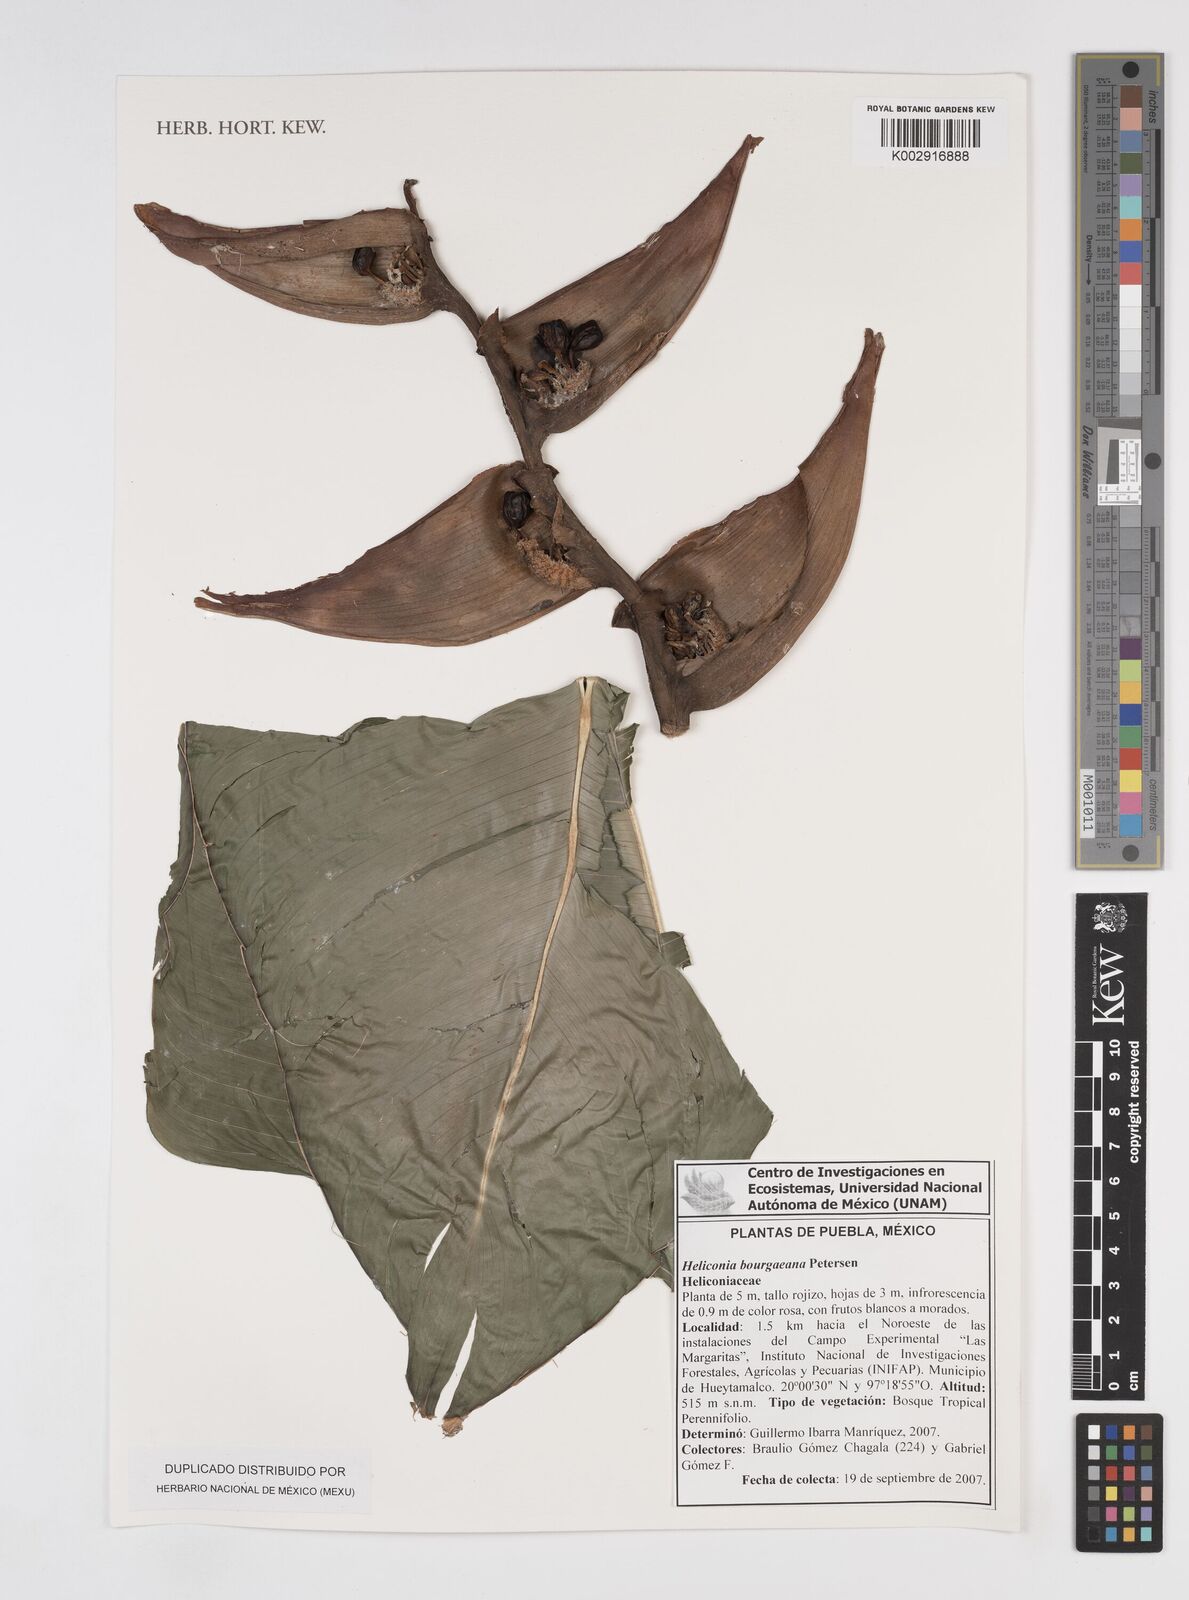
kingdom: Plantae
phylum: Tracheophyta
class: Liliopsida
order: Zingiberales
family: Heliconiaceae
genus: Heliconia
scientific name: Heliconia bourgaeana
